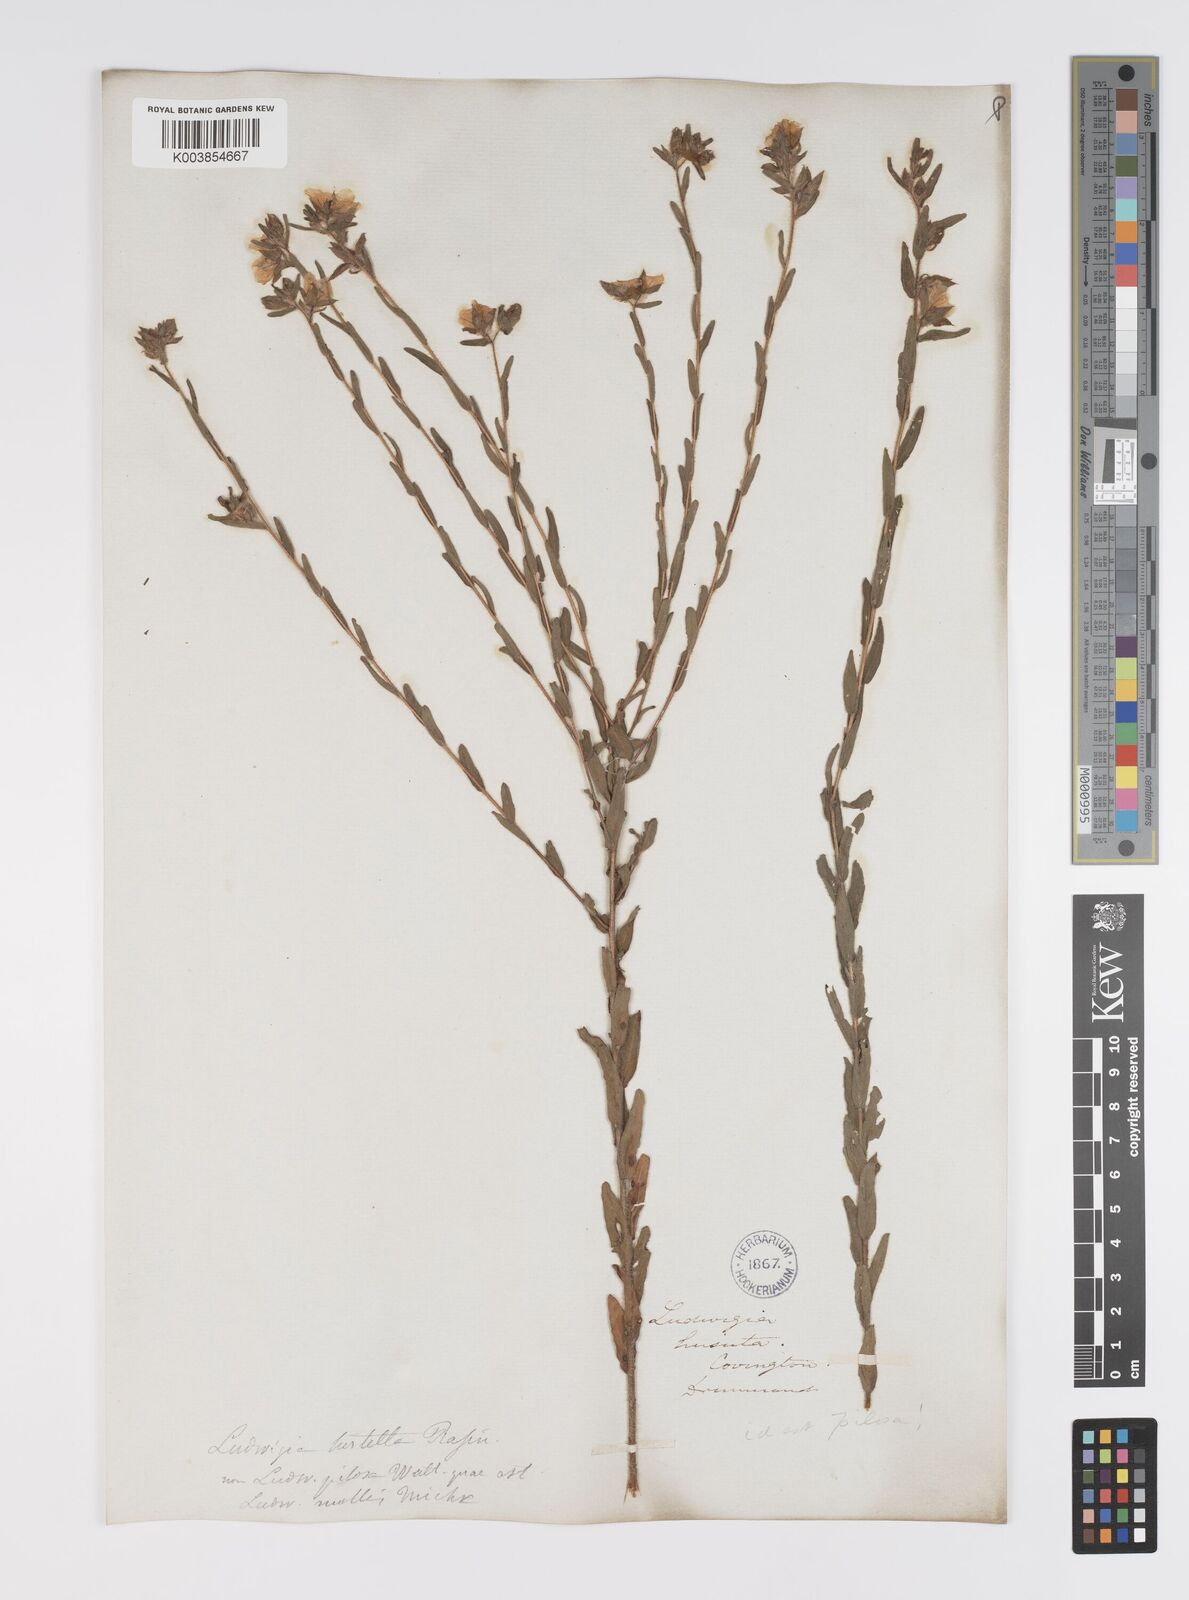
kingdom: Plantae
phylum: Tracheophyta
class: Magnoliopsida
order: Myrtales
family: Onagraceae
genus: Ludwigia
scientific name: Ludwigia hirtella
